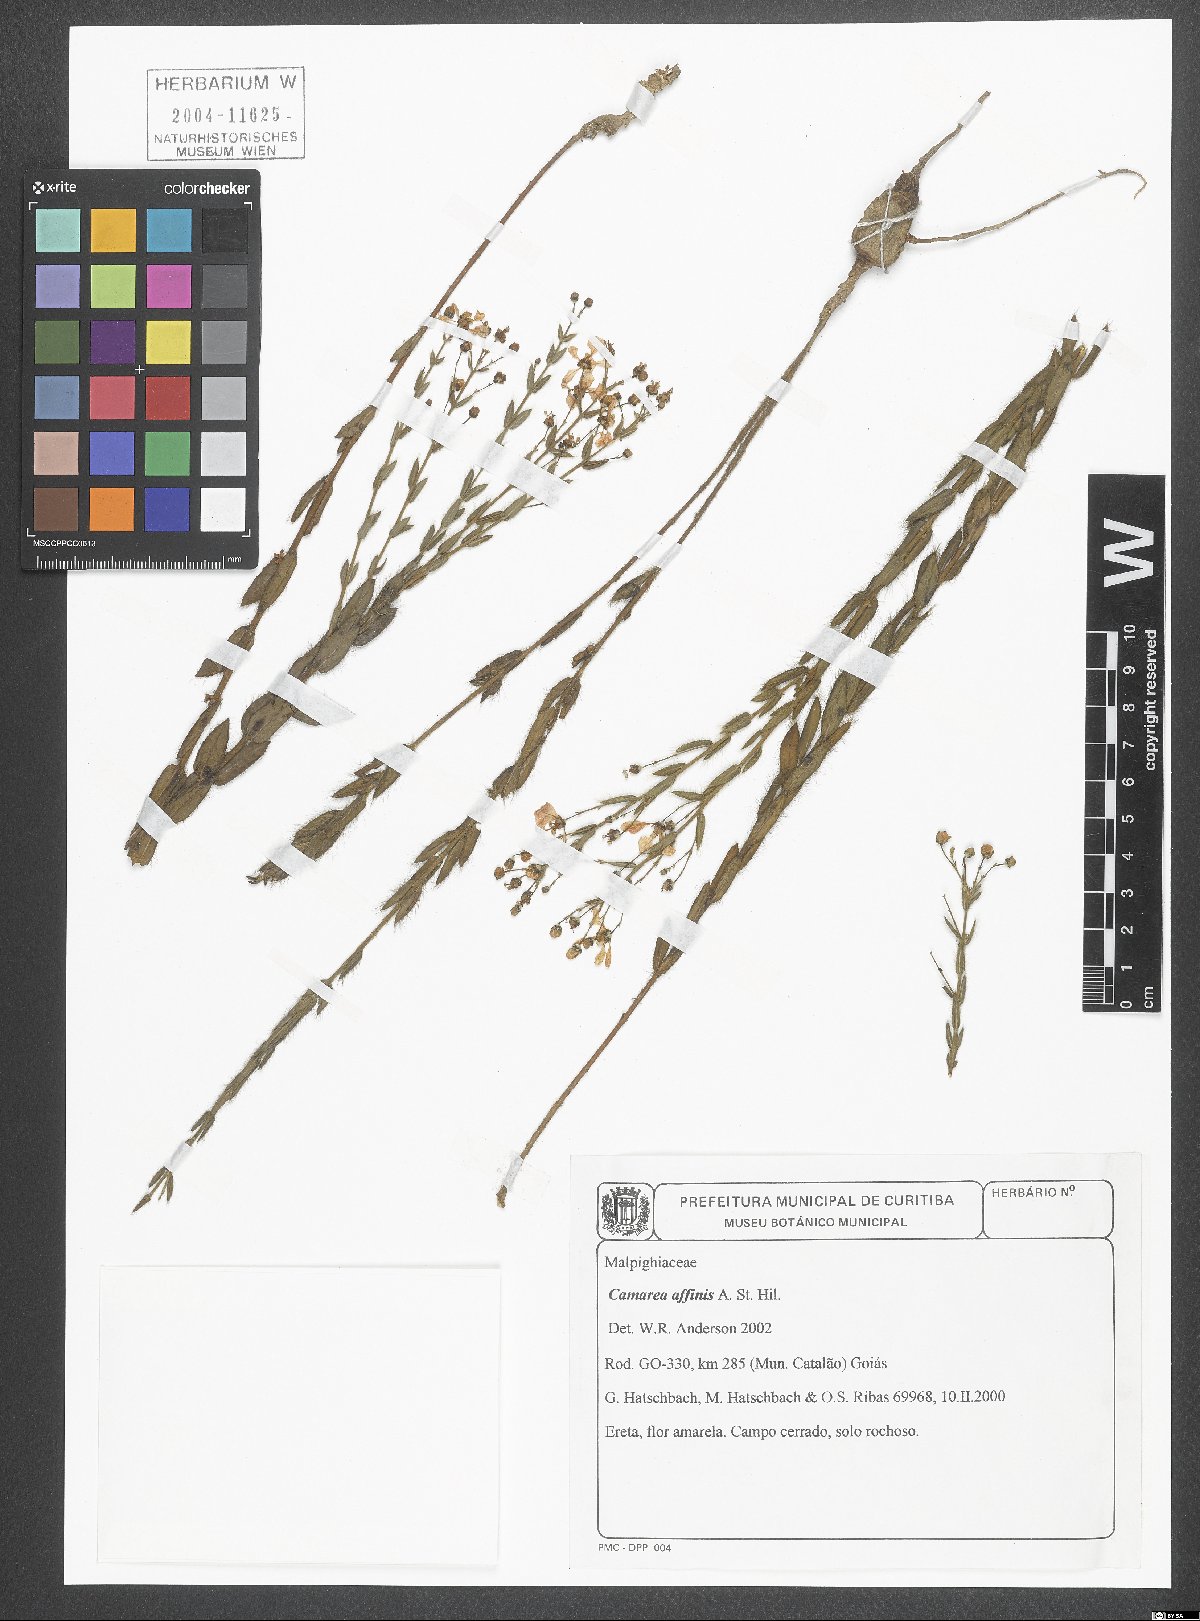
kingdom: Plantae
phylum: Tracheophyta
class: Magnoliopsida
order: Malpighiales
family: Malpighiaceae
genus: Camarea
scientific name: Camarea affinis
